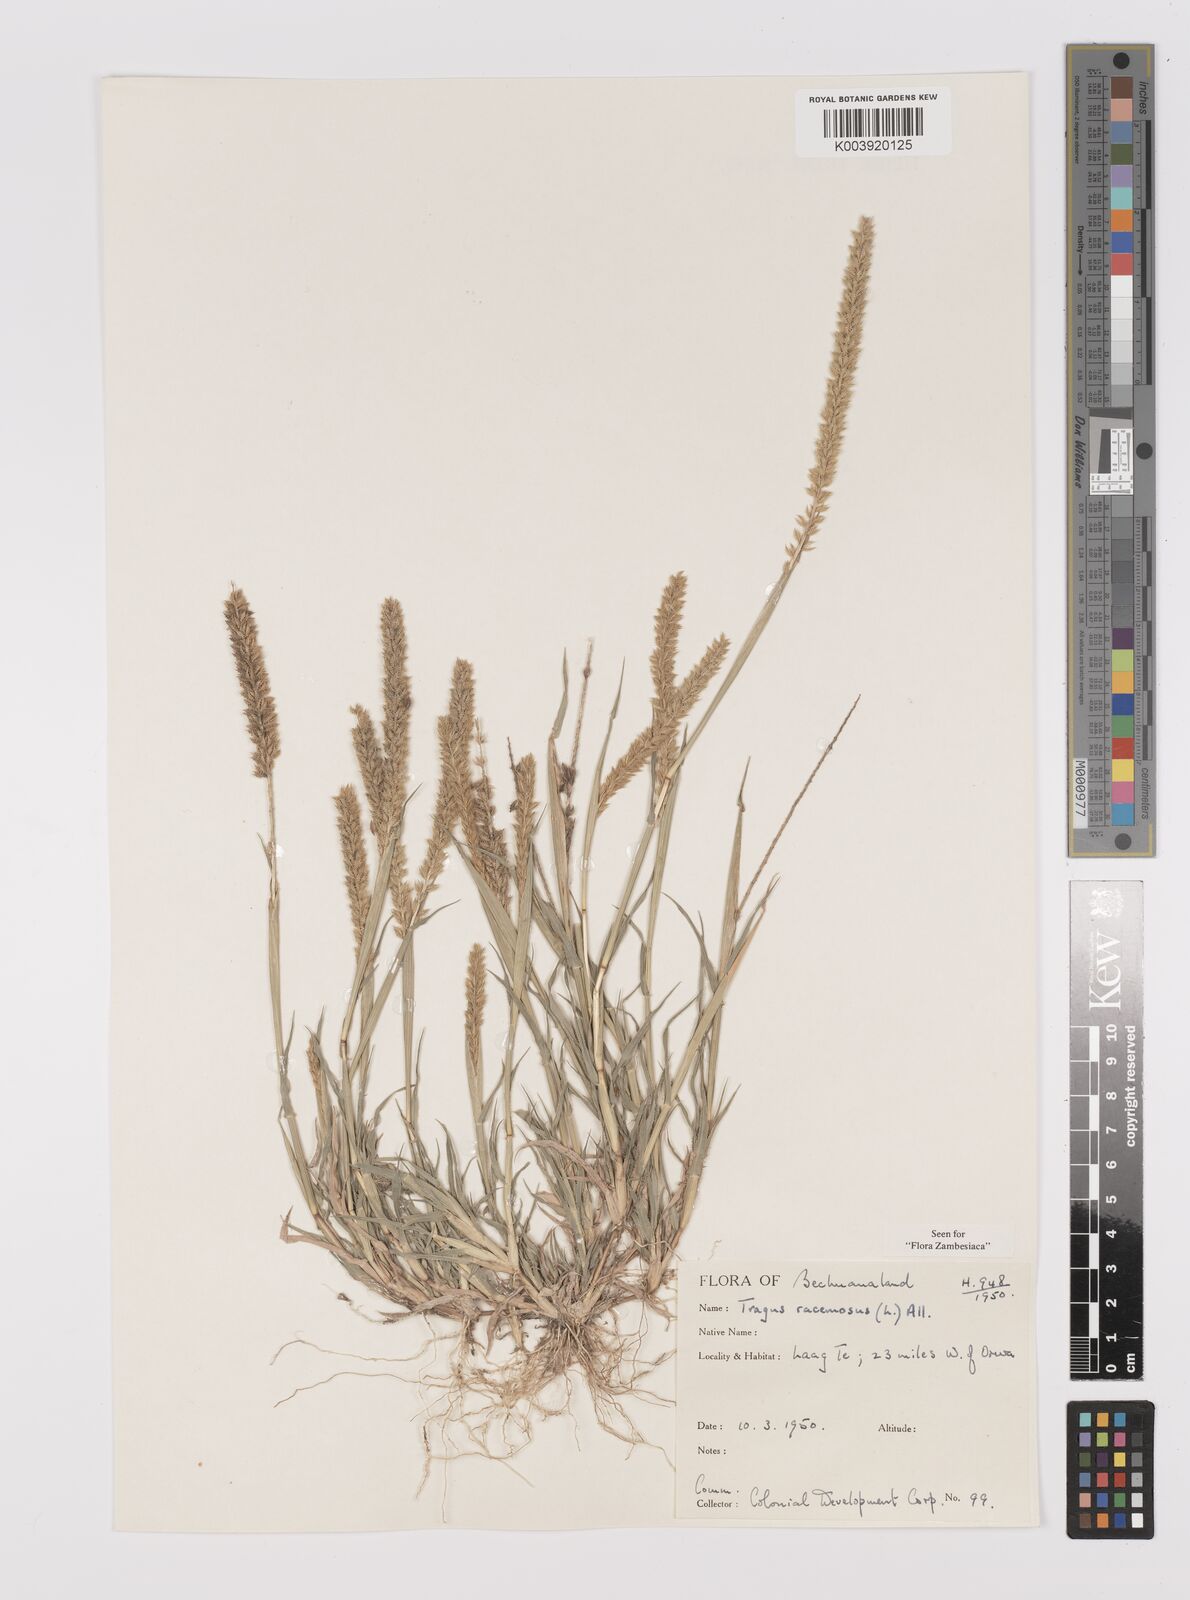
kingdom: Plantae
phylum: Tracheophyta
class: Liliopsida
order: Poales
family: Poaceae
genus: Tragus
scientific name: Tragus racemosus
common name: European bur-grass
